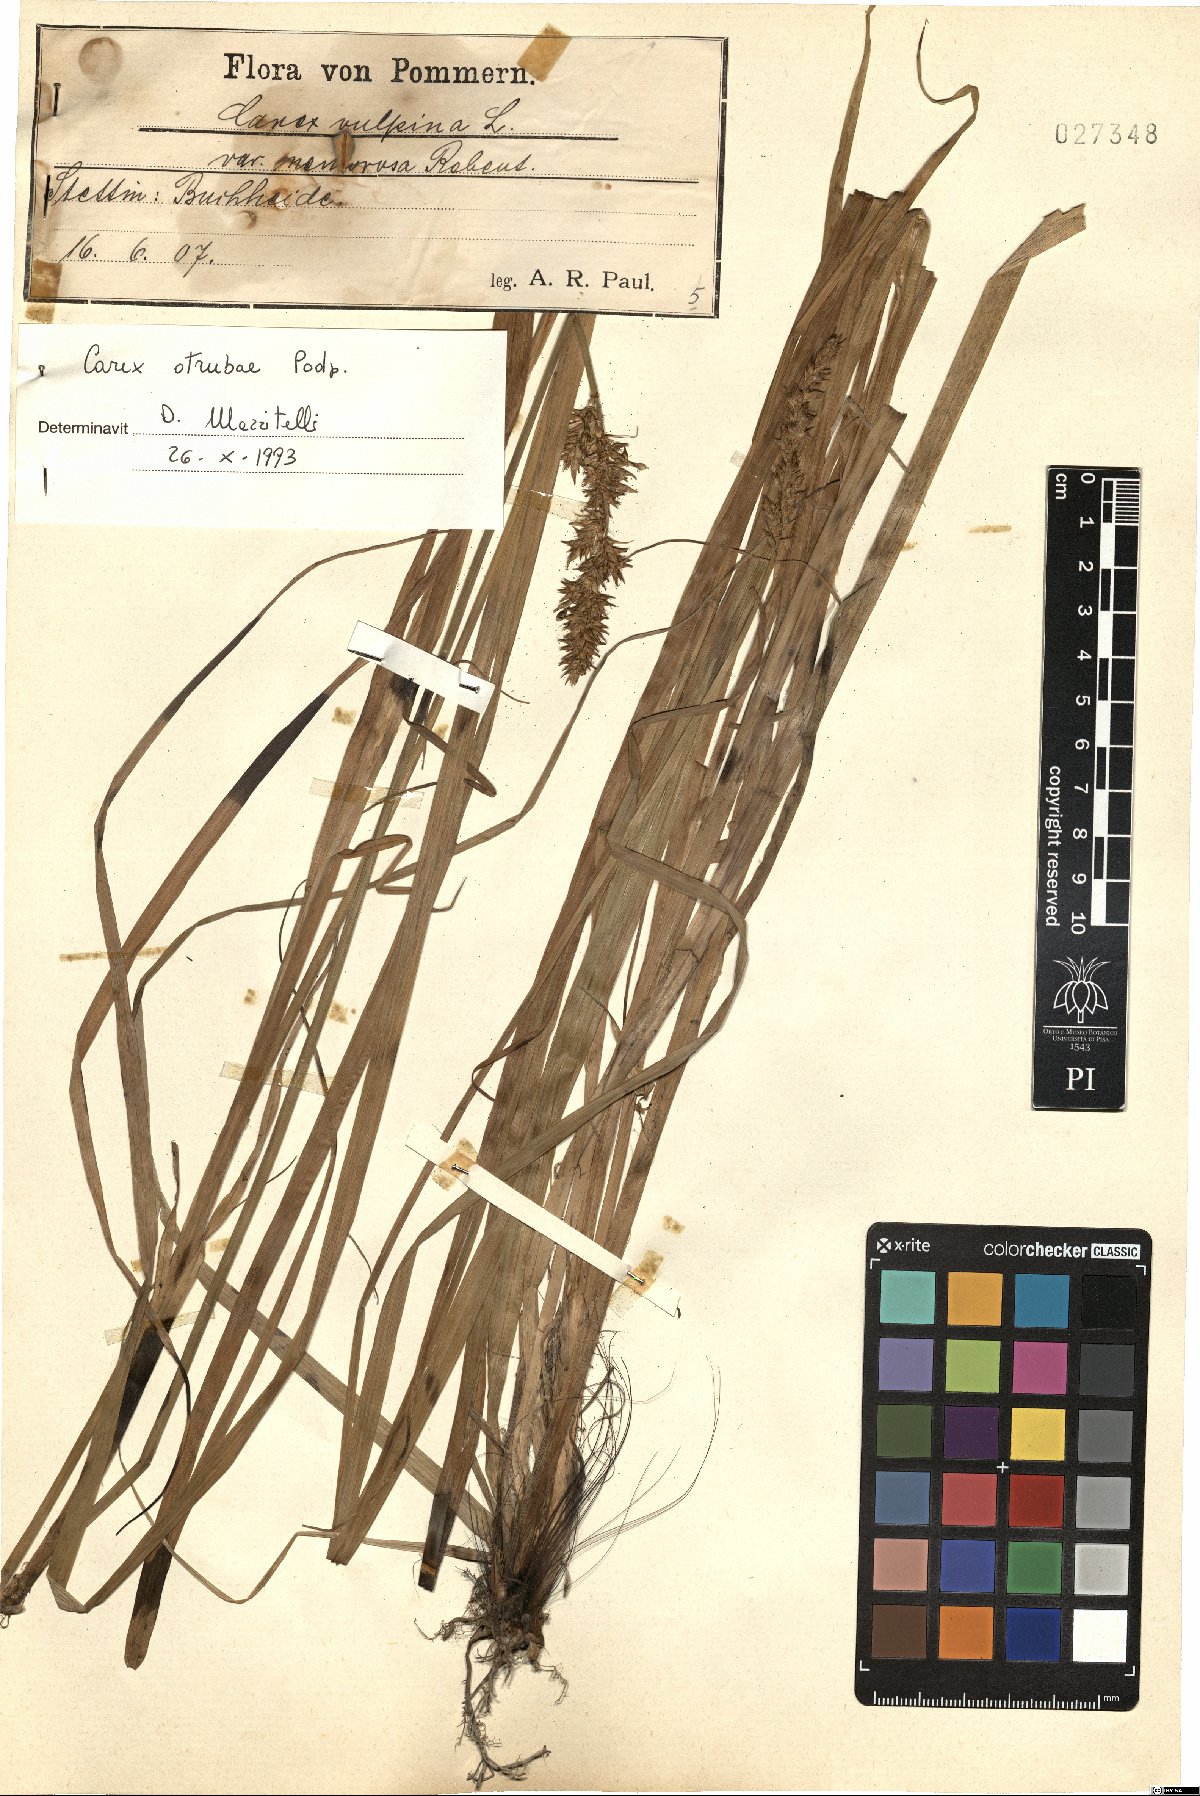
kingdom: Plantae
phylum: Tracheophyta
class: Liliopsida
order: Poales
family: Cyperaceae
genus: Carex
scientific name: Carex otrubae
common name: False fox-sedge
